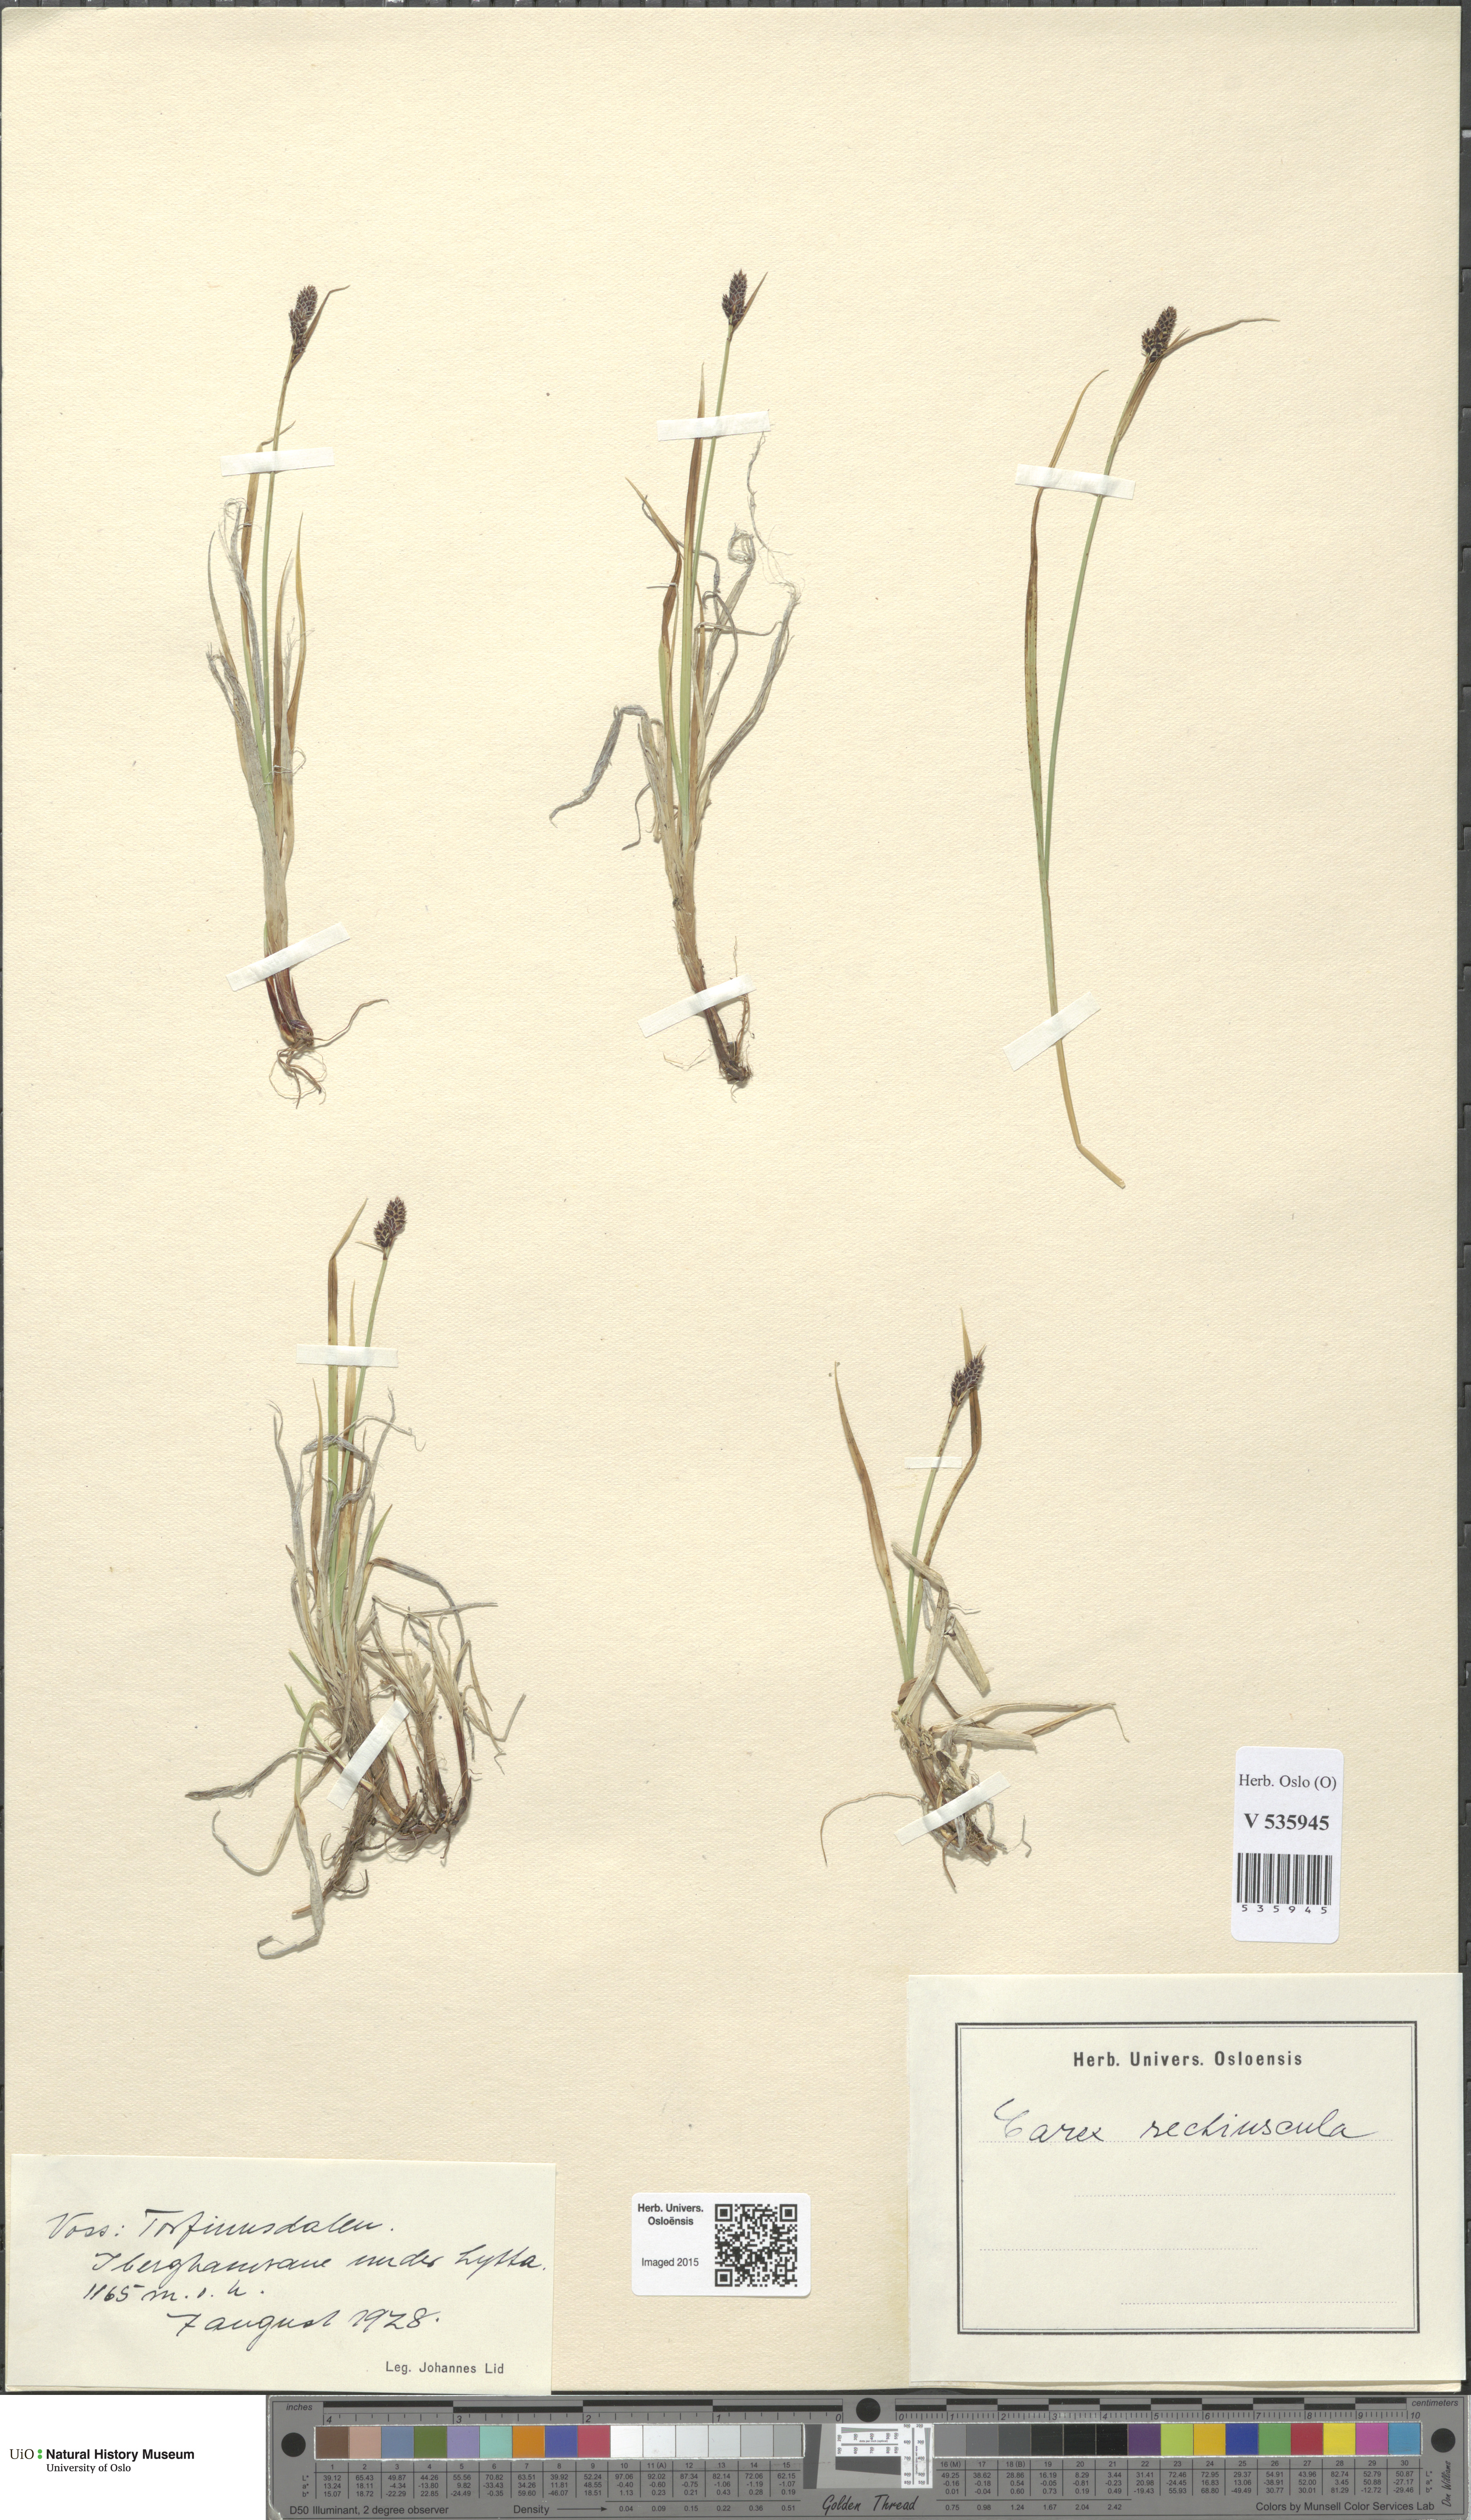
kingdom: Plantae
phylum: Tracheophyta
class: Liliopsida
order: Poales
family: Cyperaceae
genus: Carex
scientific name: Carex
